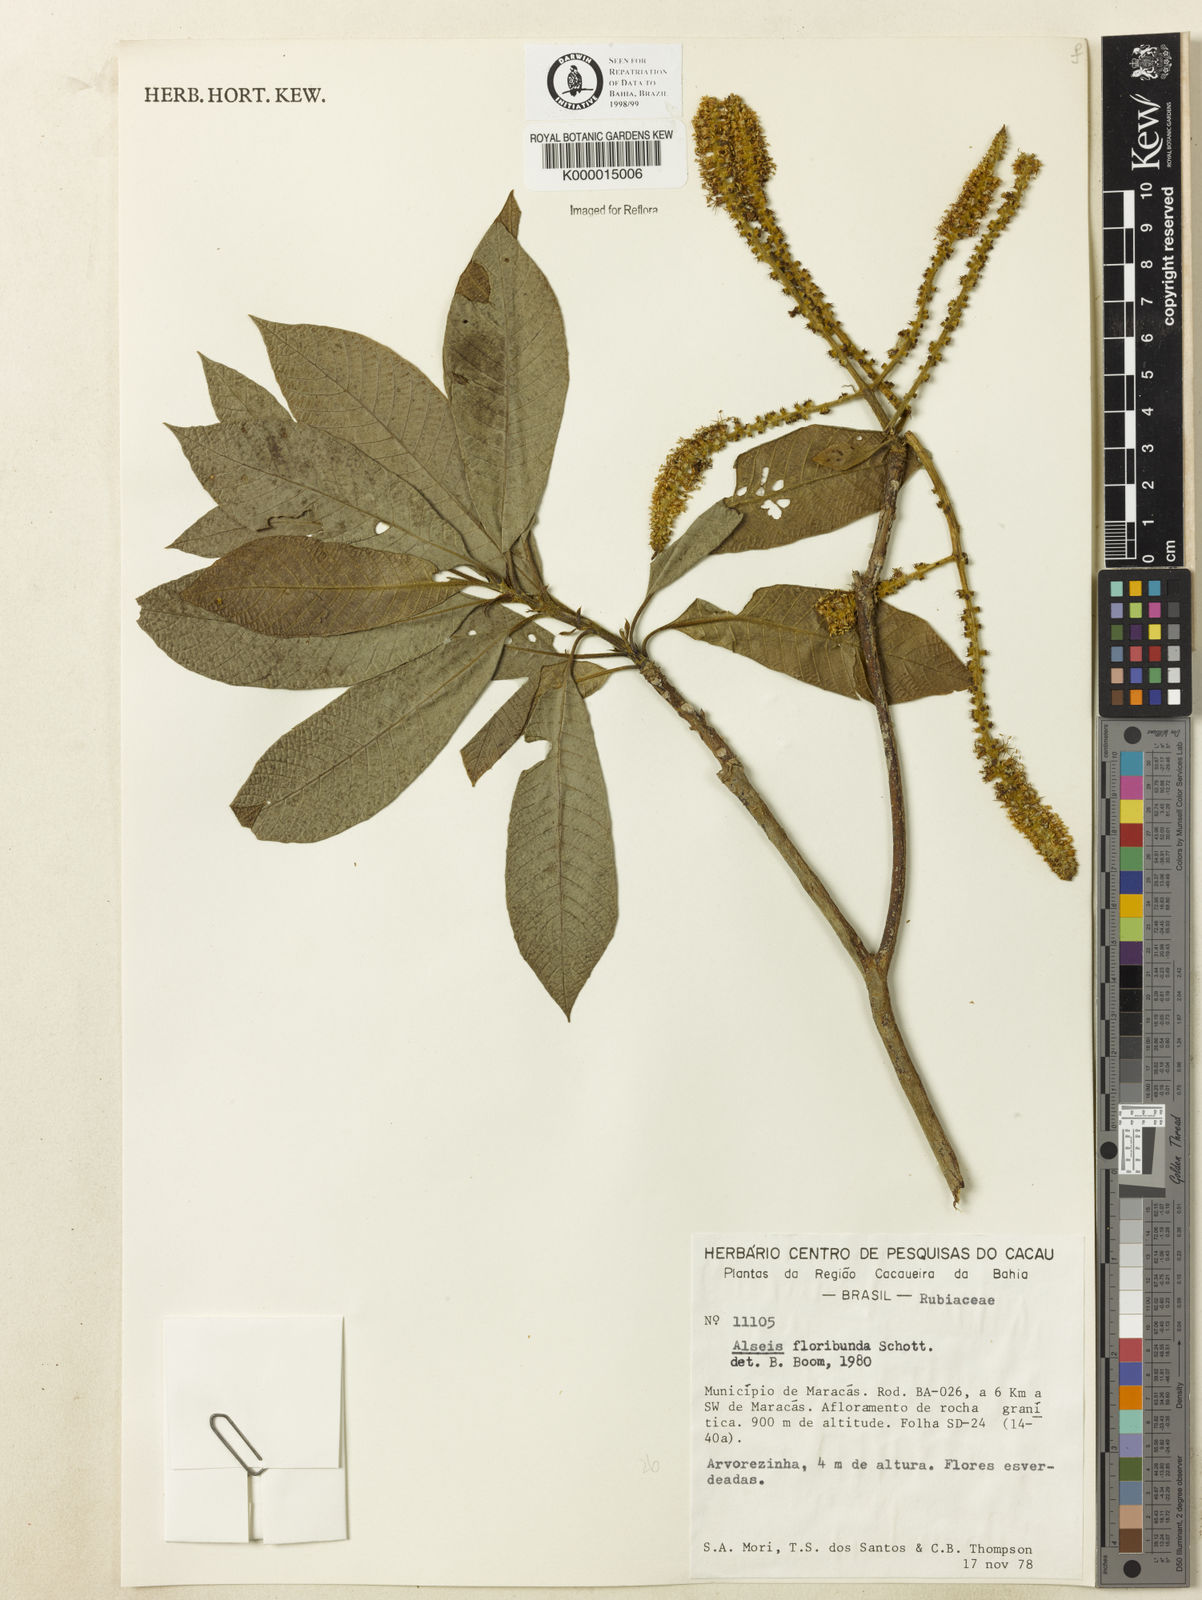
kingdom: Plantae
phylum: Tracheophyta
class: Magnoliopsida
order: Gentianales
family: Rubiaceae
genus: Alseis
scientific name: Alseis floribunda
